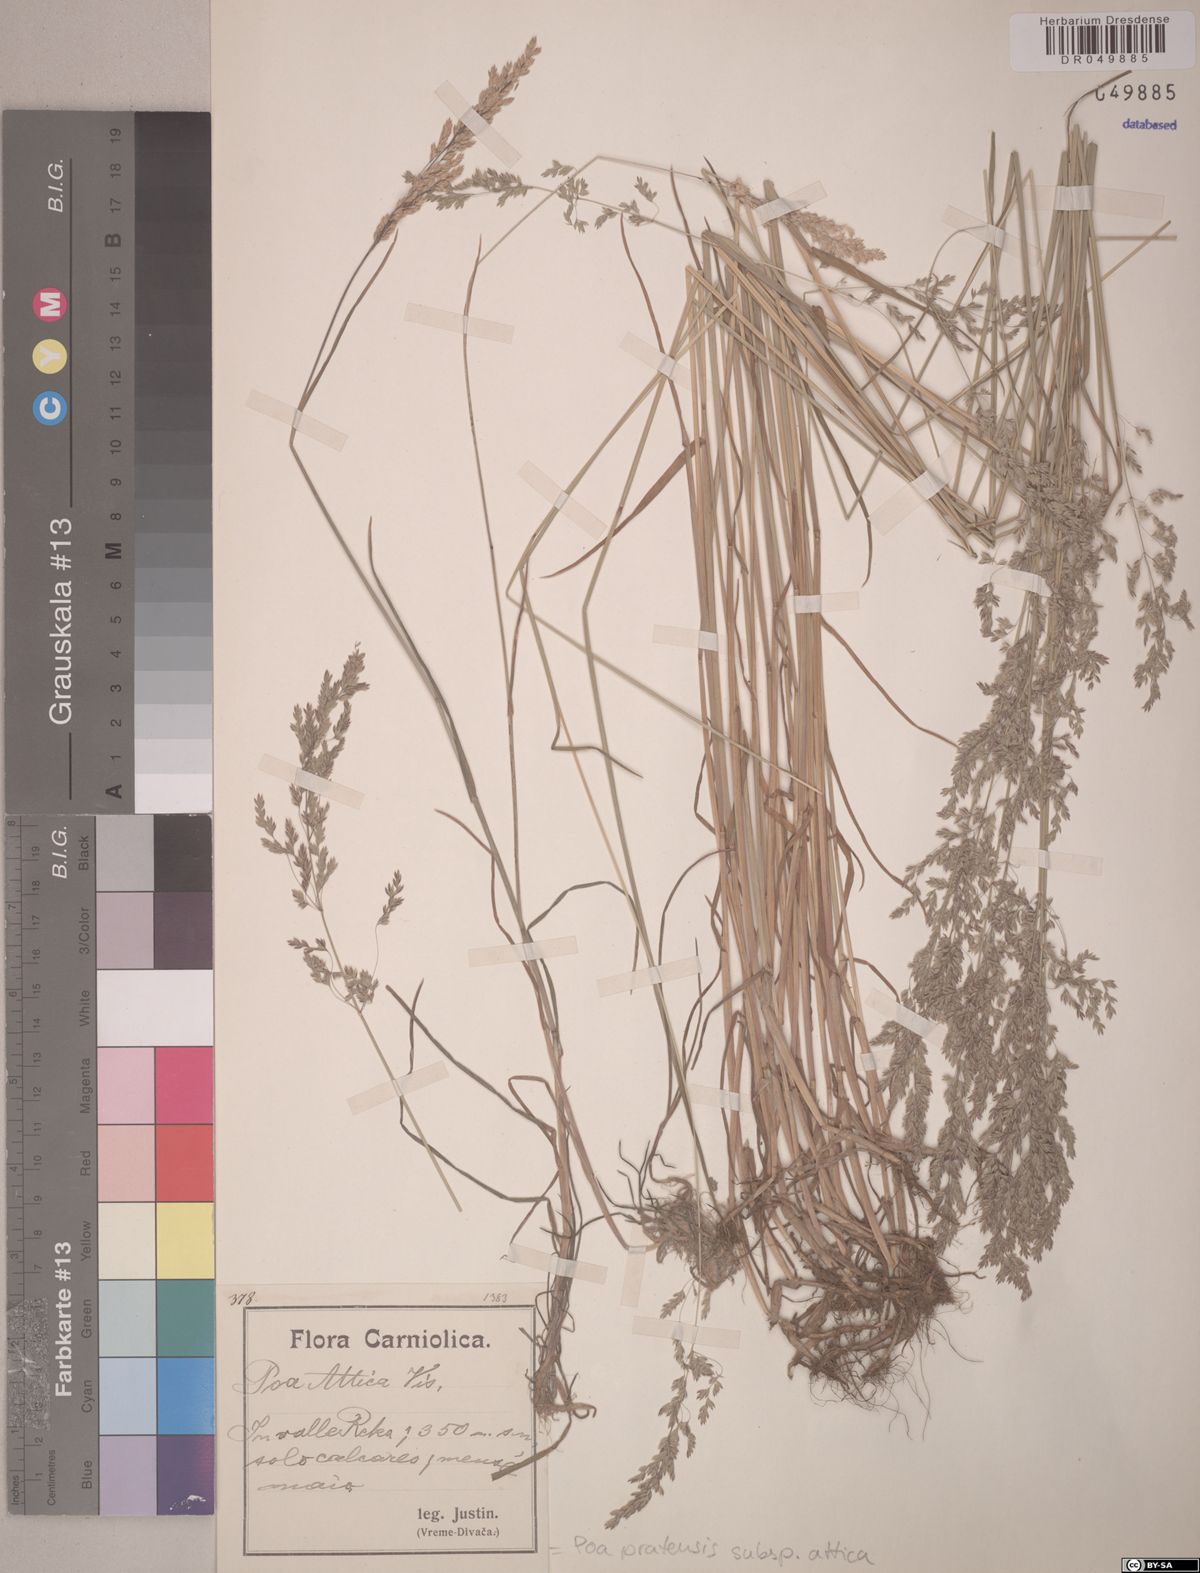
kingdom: Plantae
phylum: Tracheophyta
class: Liliopsida
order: Poales
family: Poaceae
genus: Poa
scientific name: Poa trivialis
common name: Rough bluegrass
